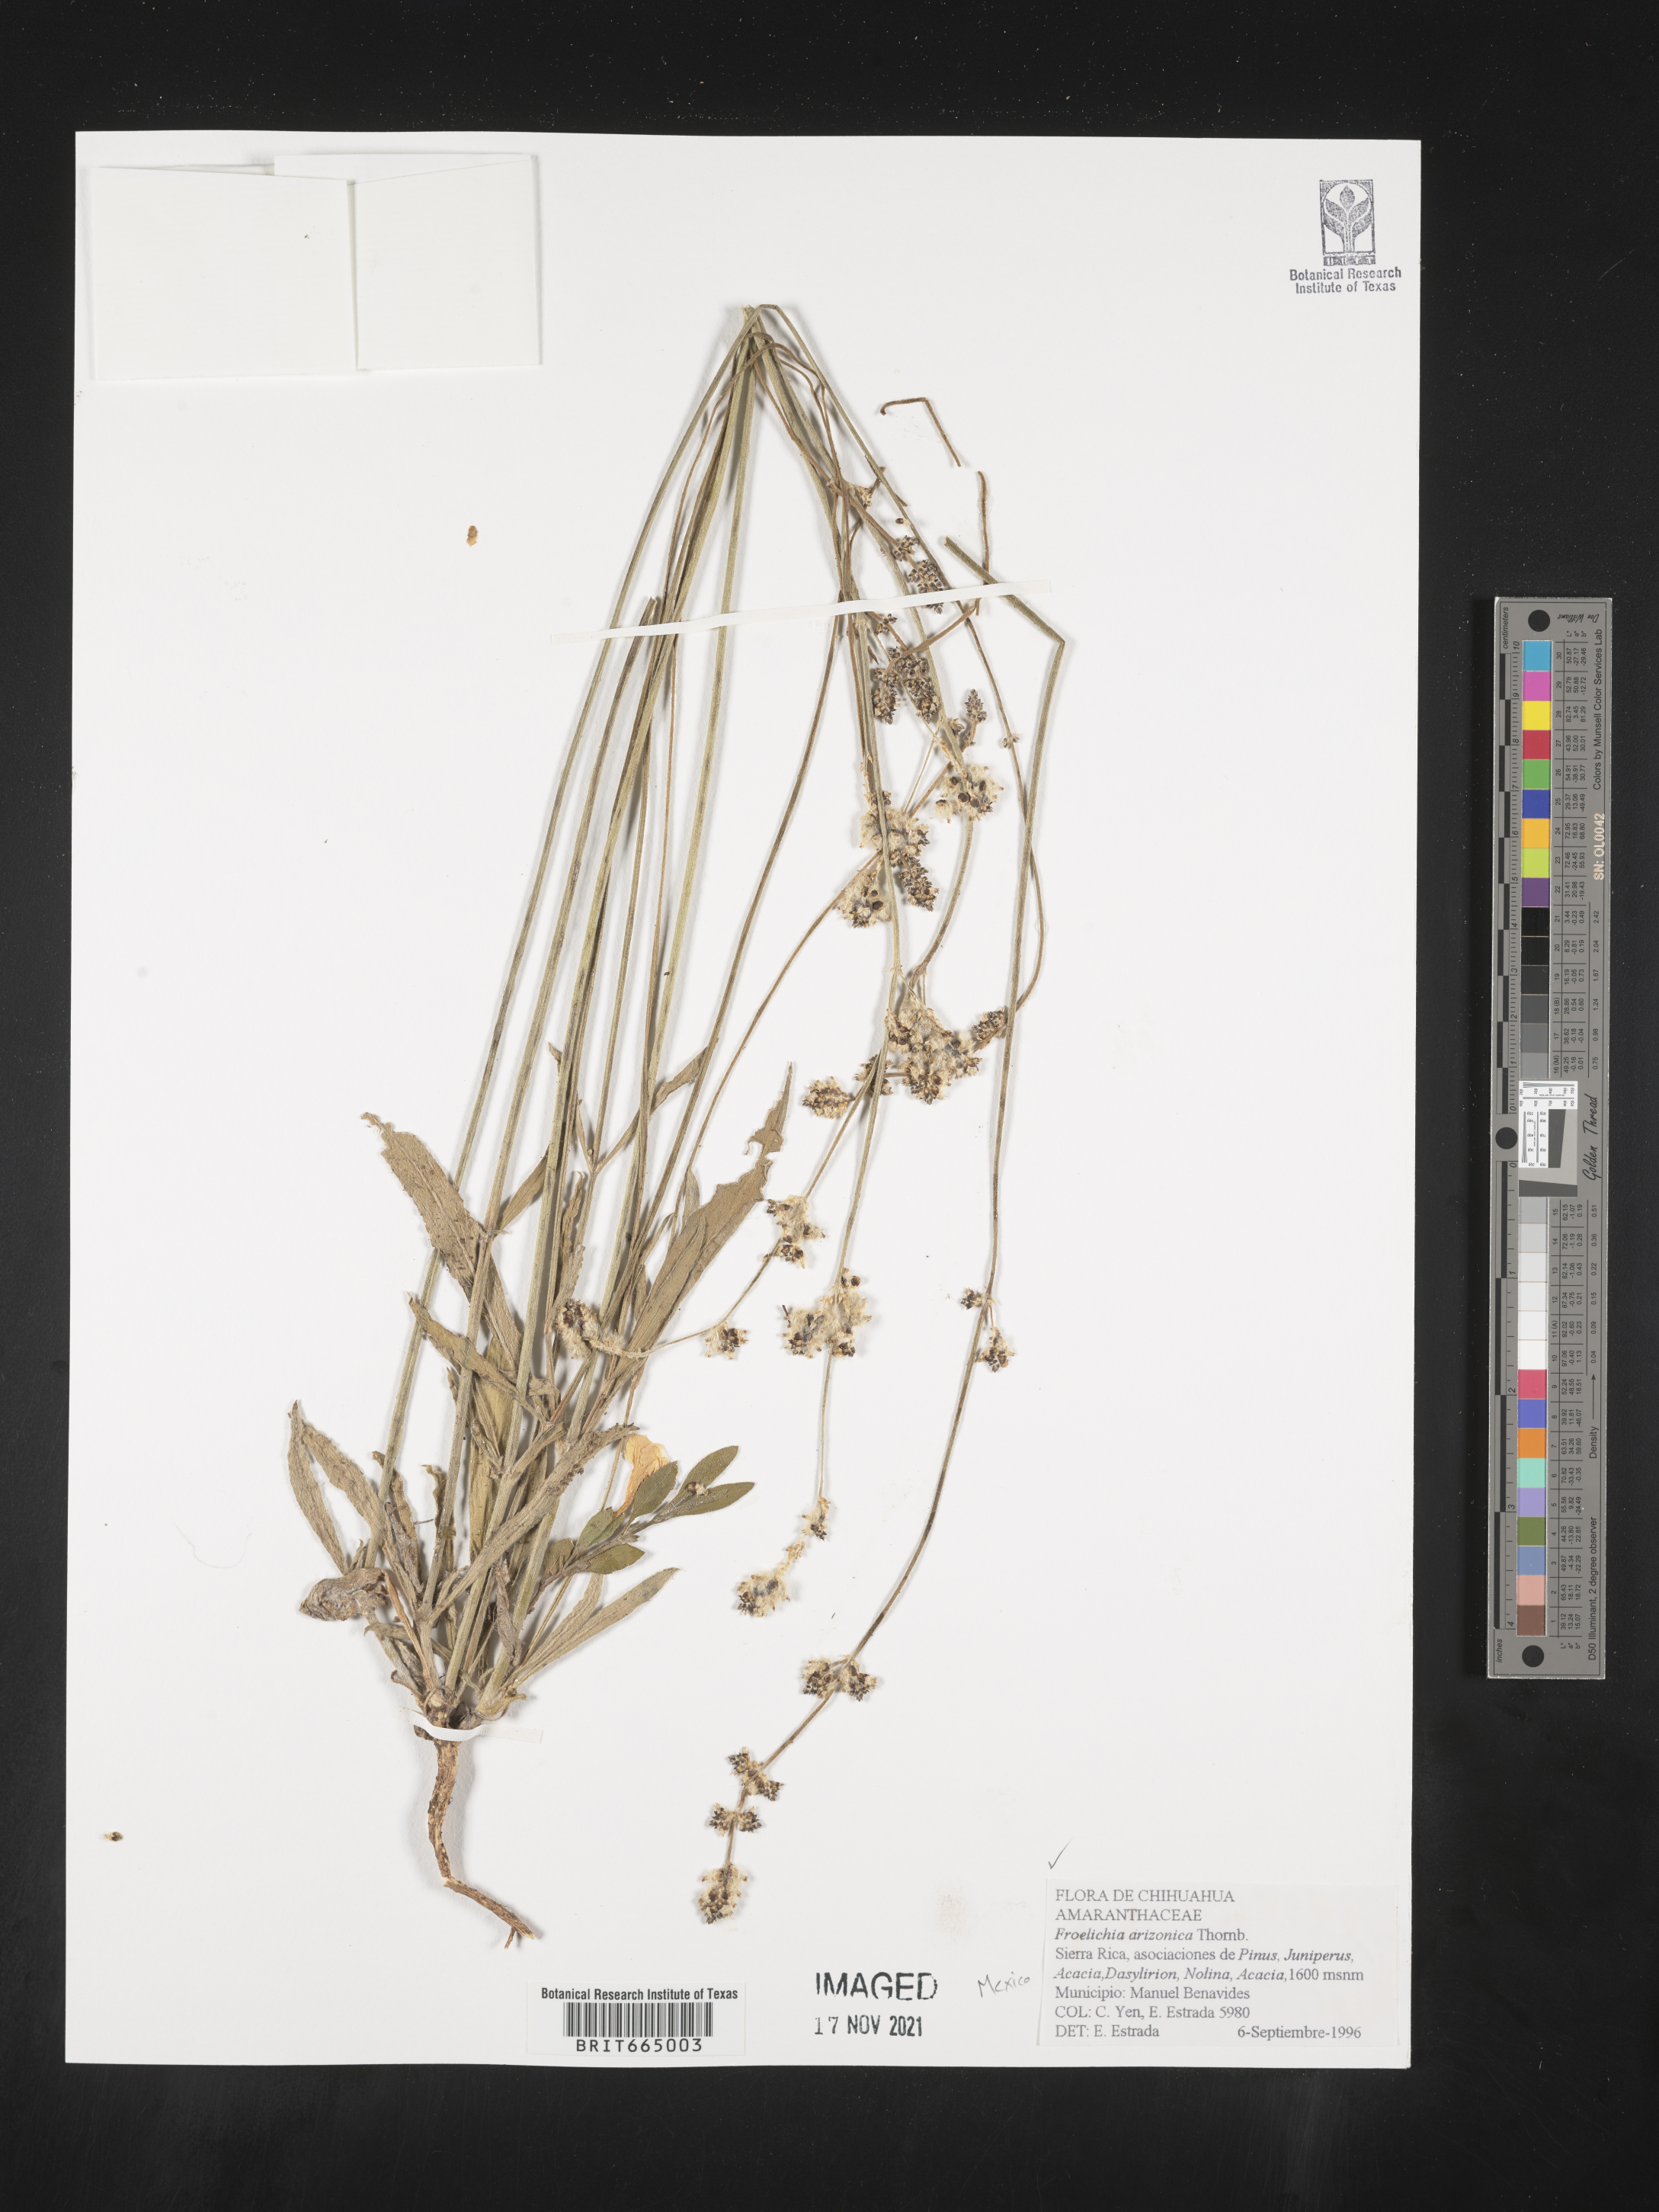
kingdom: Plantae
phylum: Tracheophyta
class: Magnoliopsida
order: Caryophyllales
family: Amaranthaceae
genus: Froelichia
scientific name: Froelichia
